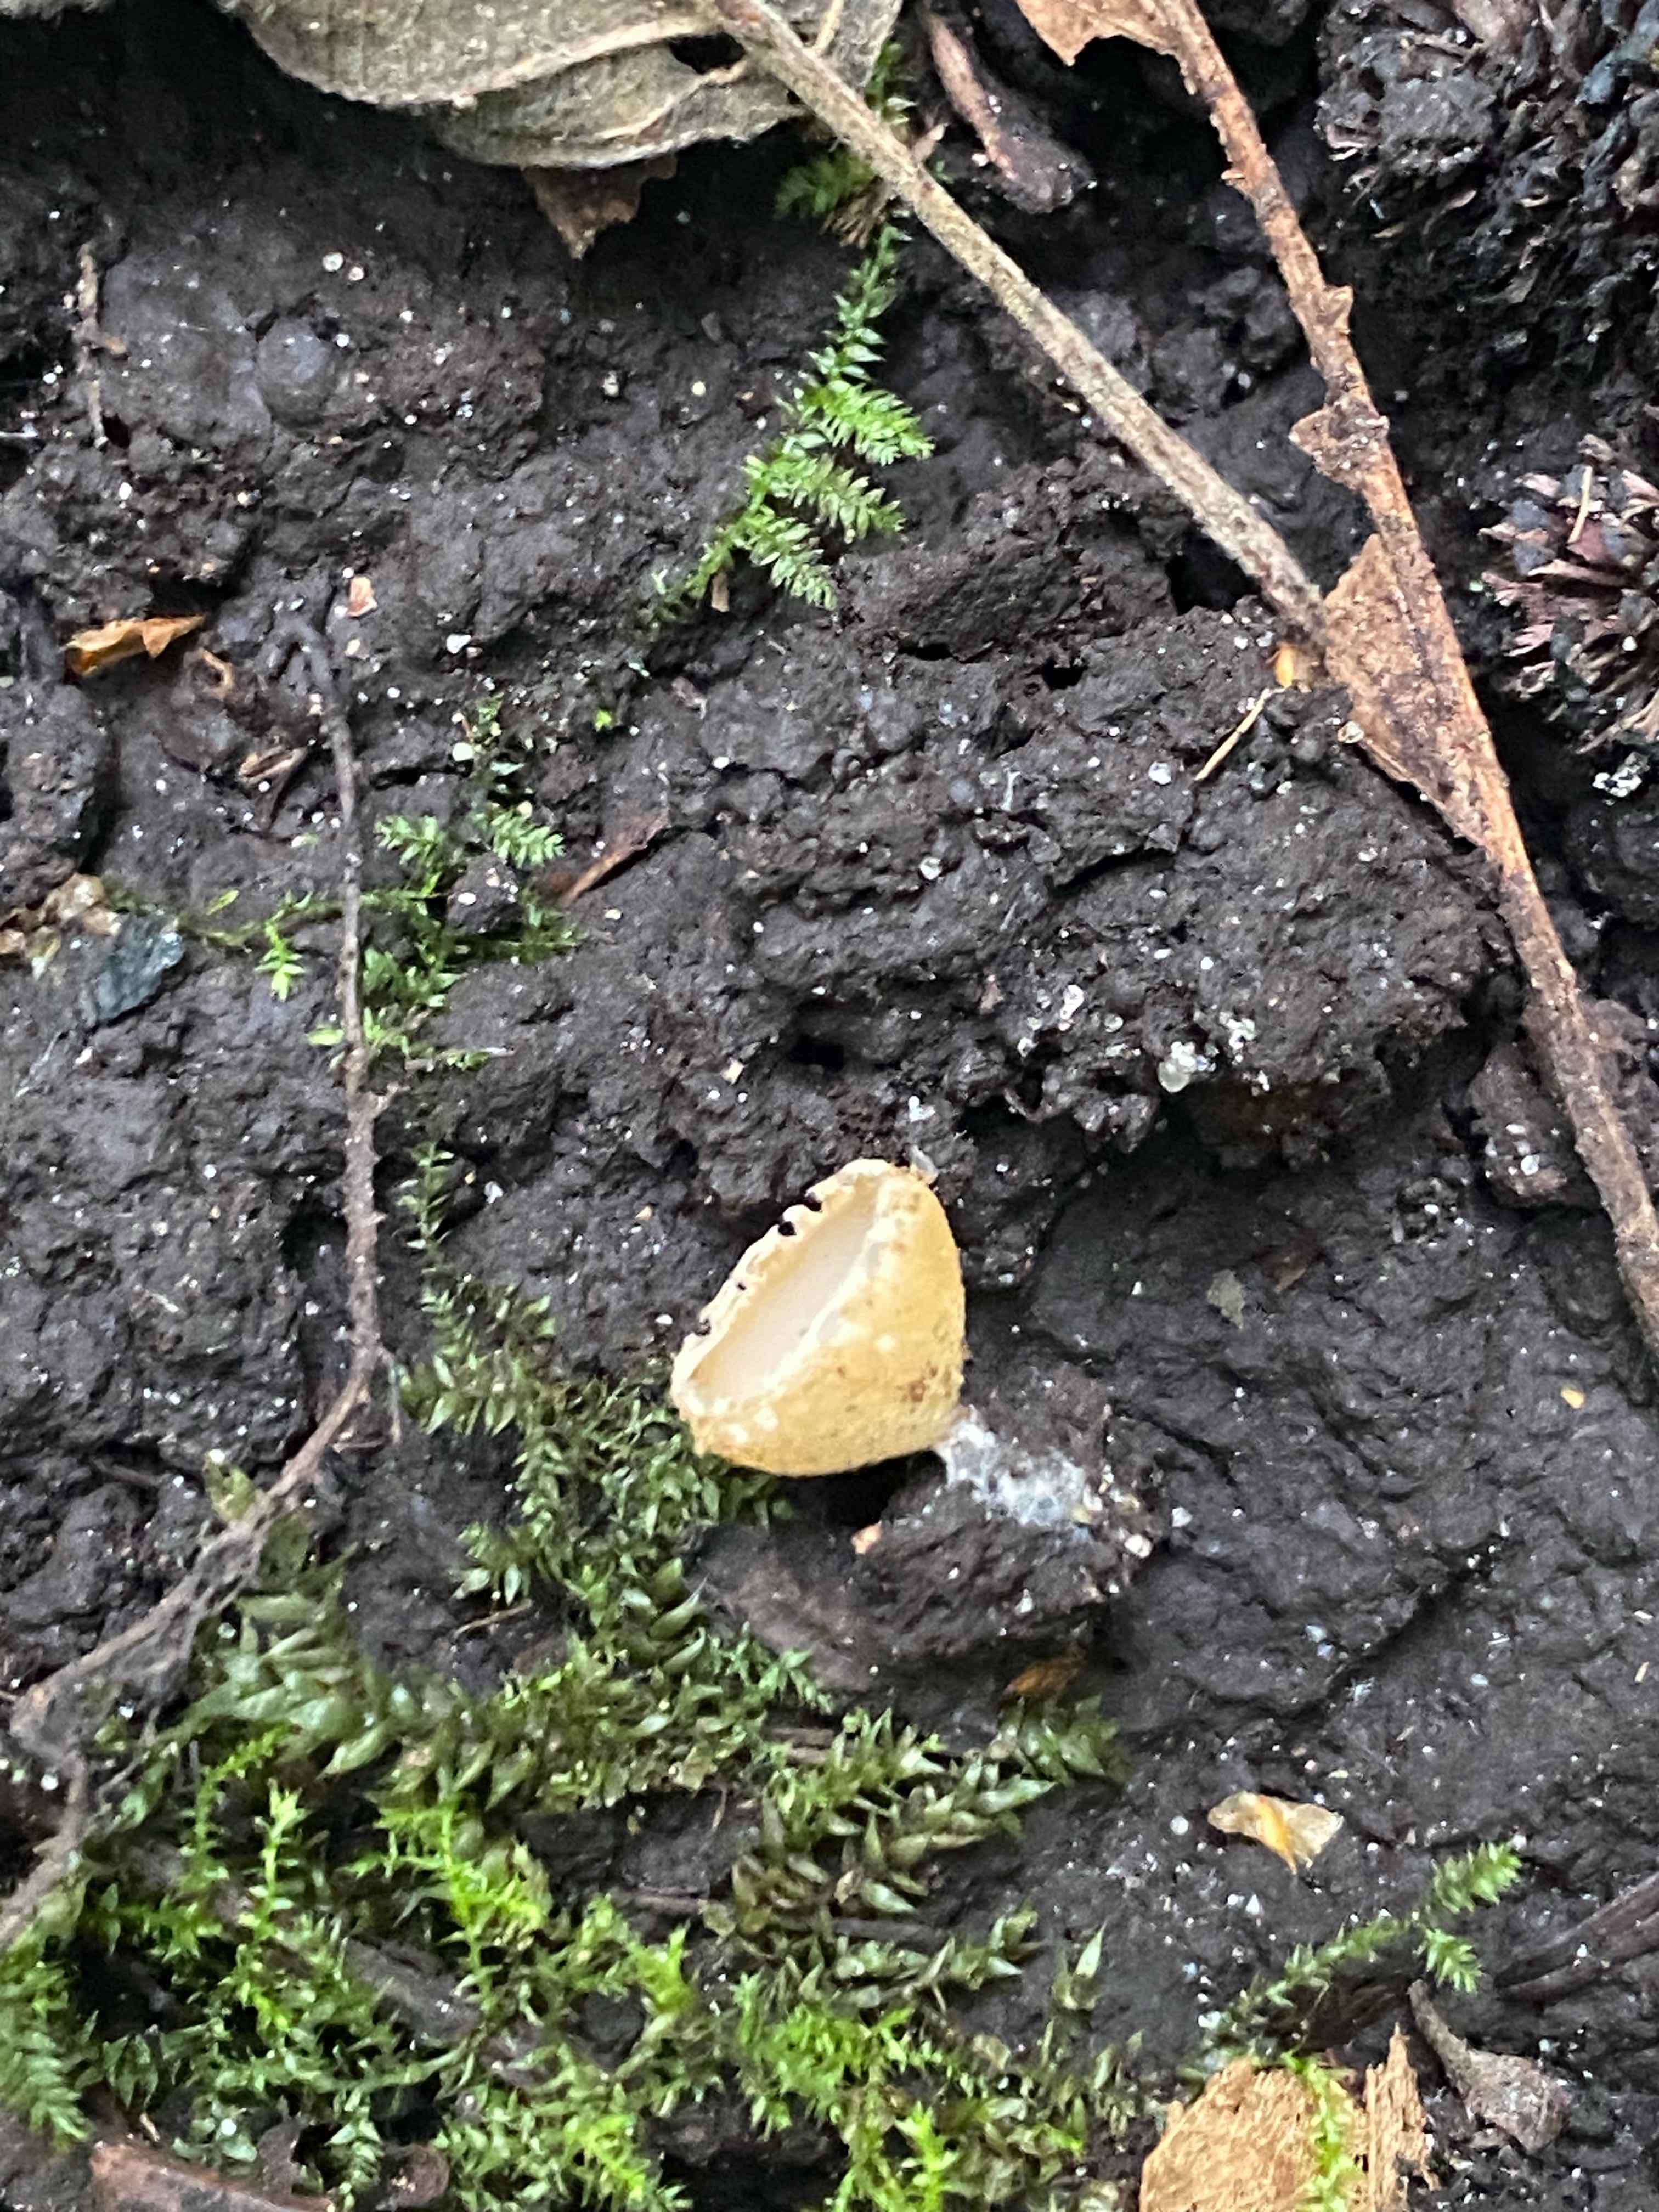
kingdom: Fungi
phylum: Ascomycota
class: Pezizomycetes
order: Pezizales
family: Pyronemataceae
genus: Tarzetta
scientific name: Tarzetta cupularis
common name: gulbrun pokalbæger
